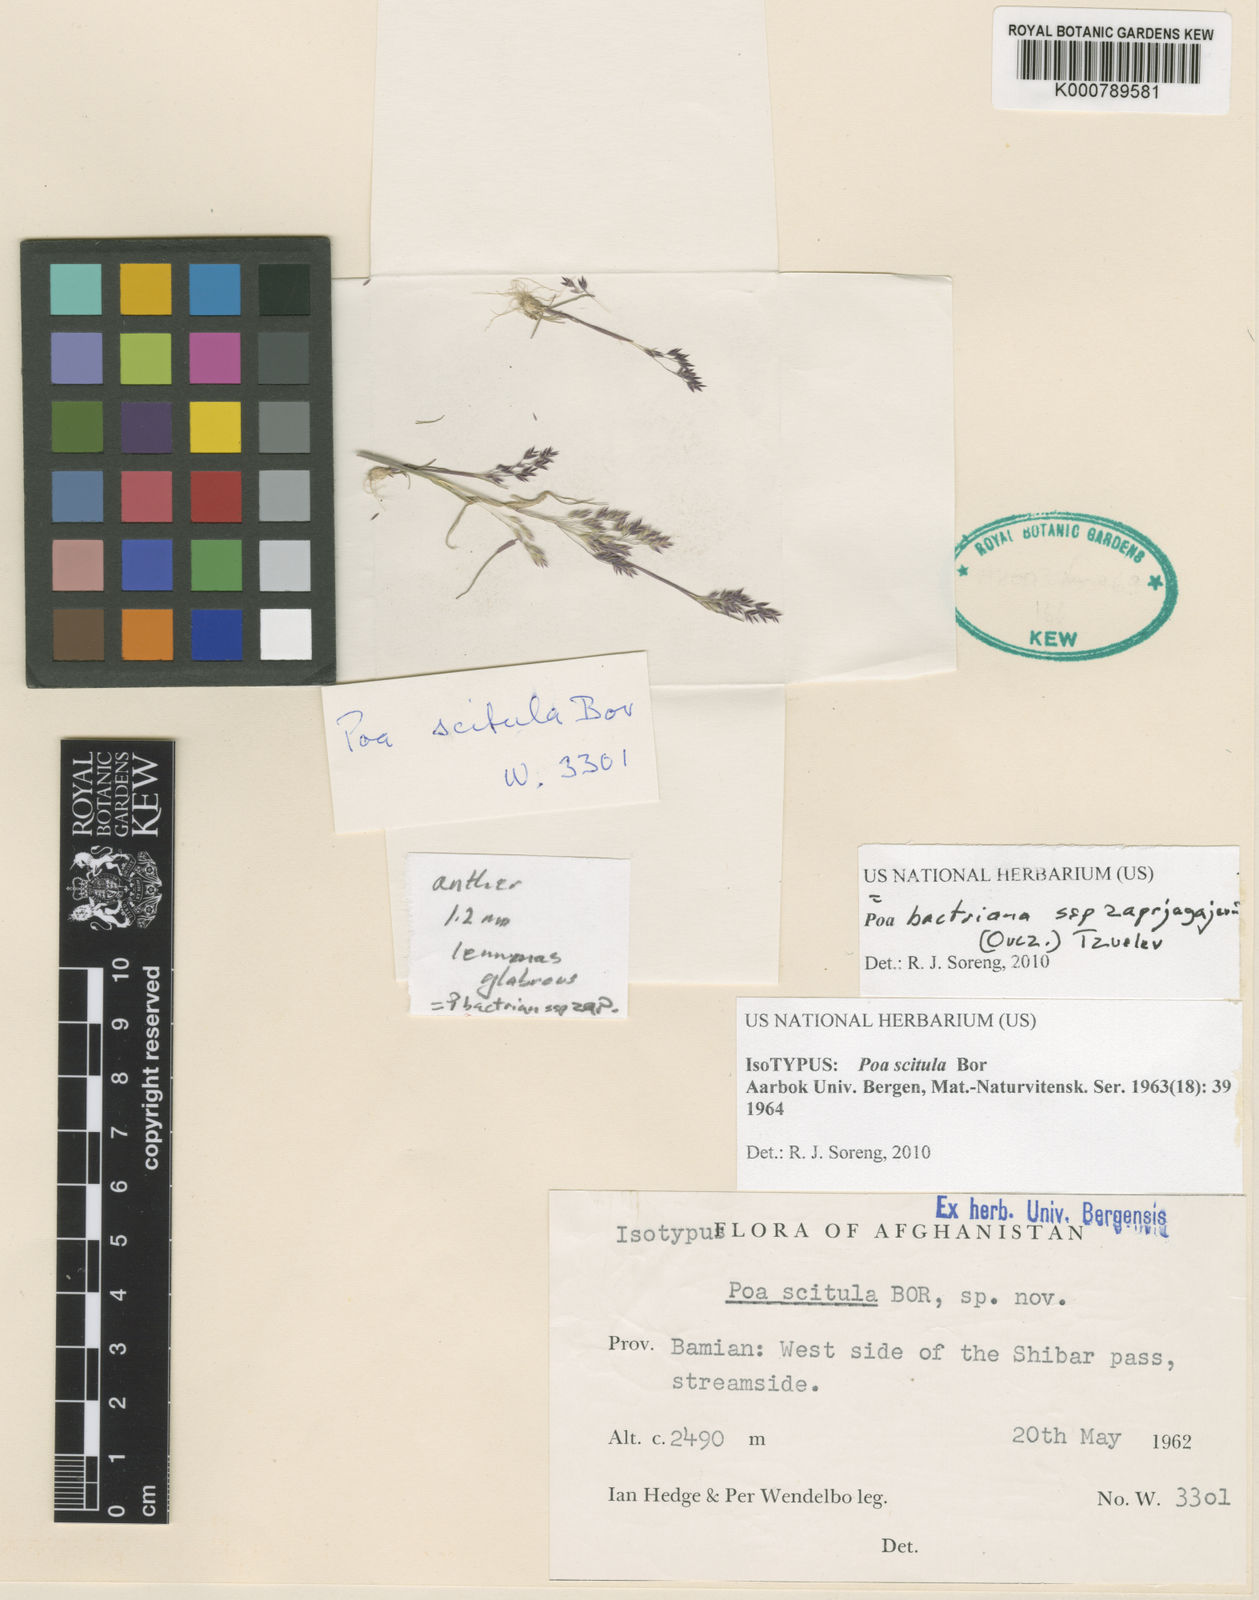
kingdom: Plantae
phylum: Tracheophyta
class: Liliopsida
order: Poales
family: Poaceae
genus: Poa
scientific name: Poa bactriana
